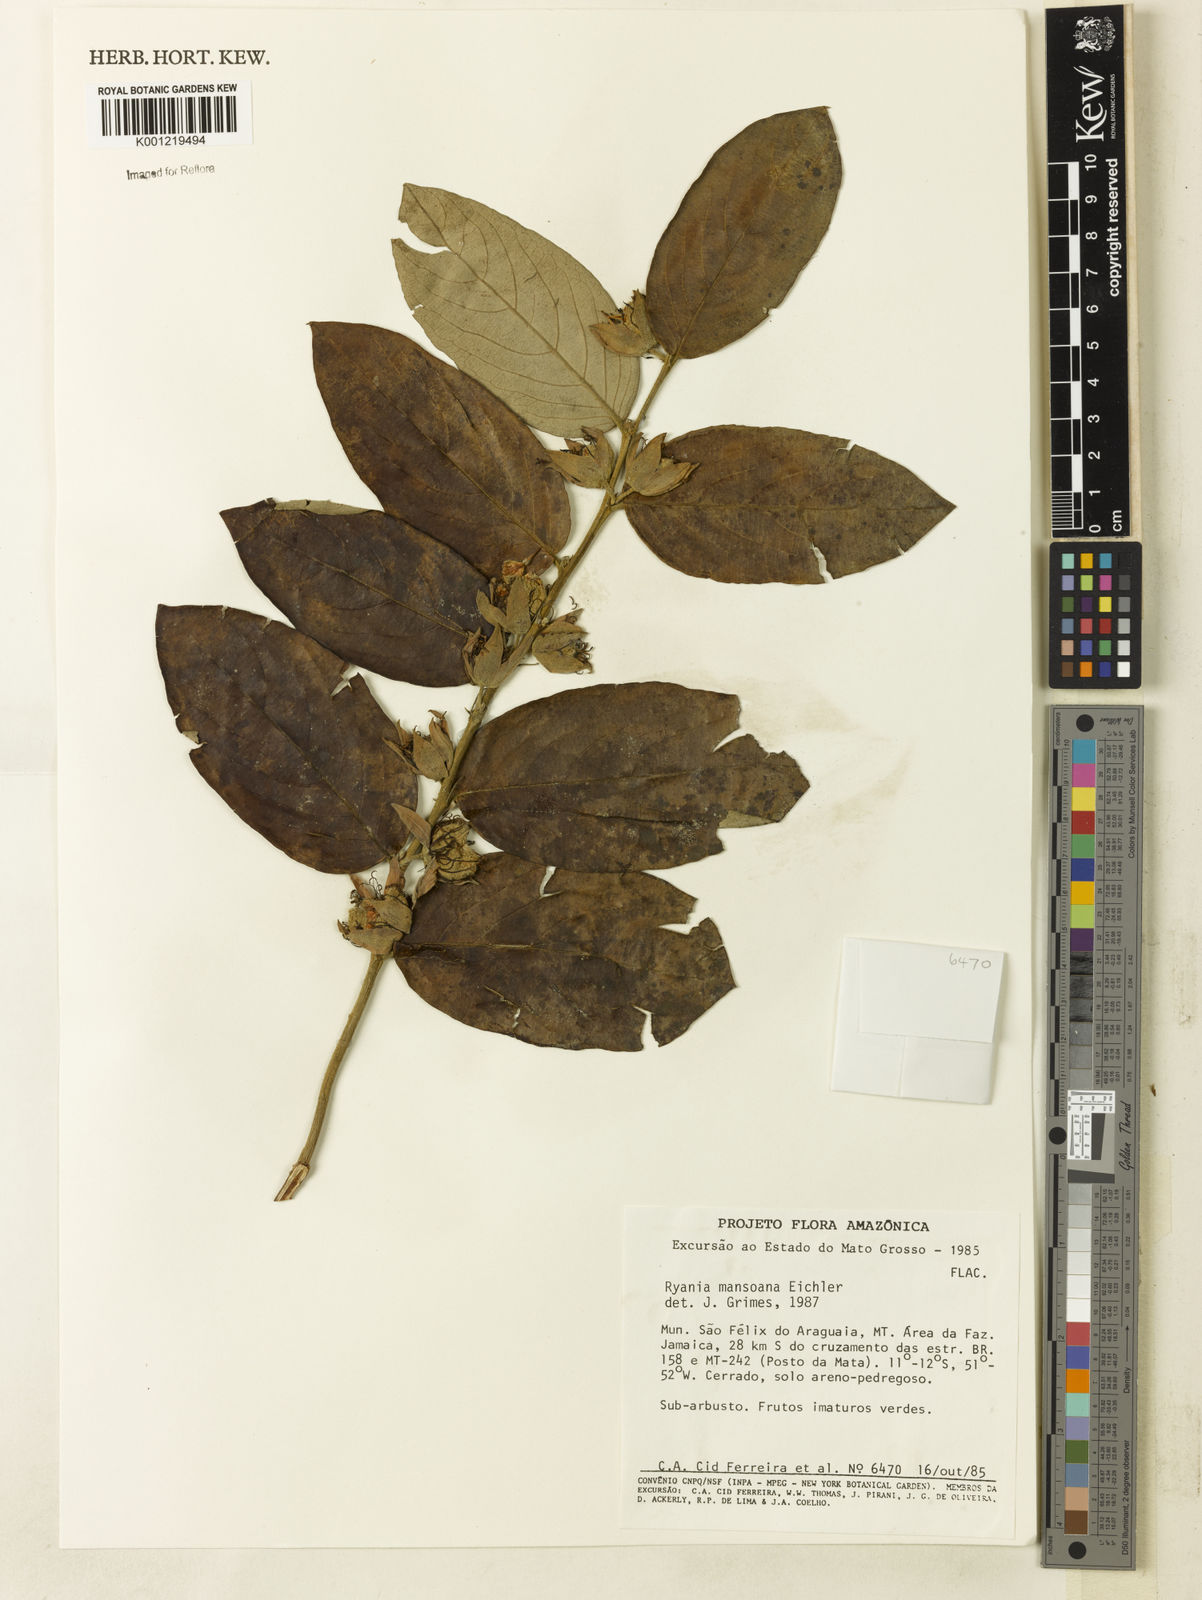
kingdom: Plantae
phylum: Tracheophyta
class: Magnoliopsida
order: Malpighiales
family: Salicaceae
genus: Ryania
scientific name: Ryania mansoana
